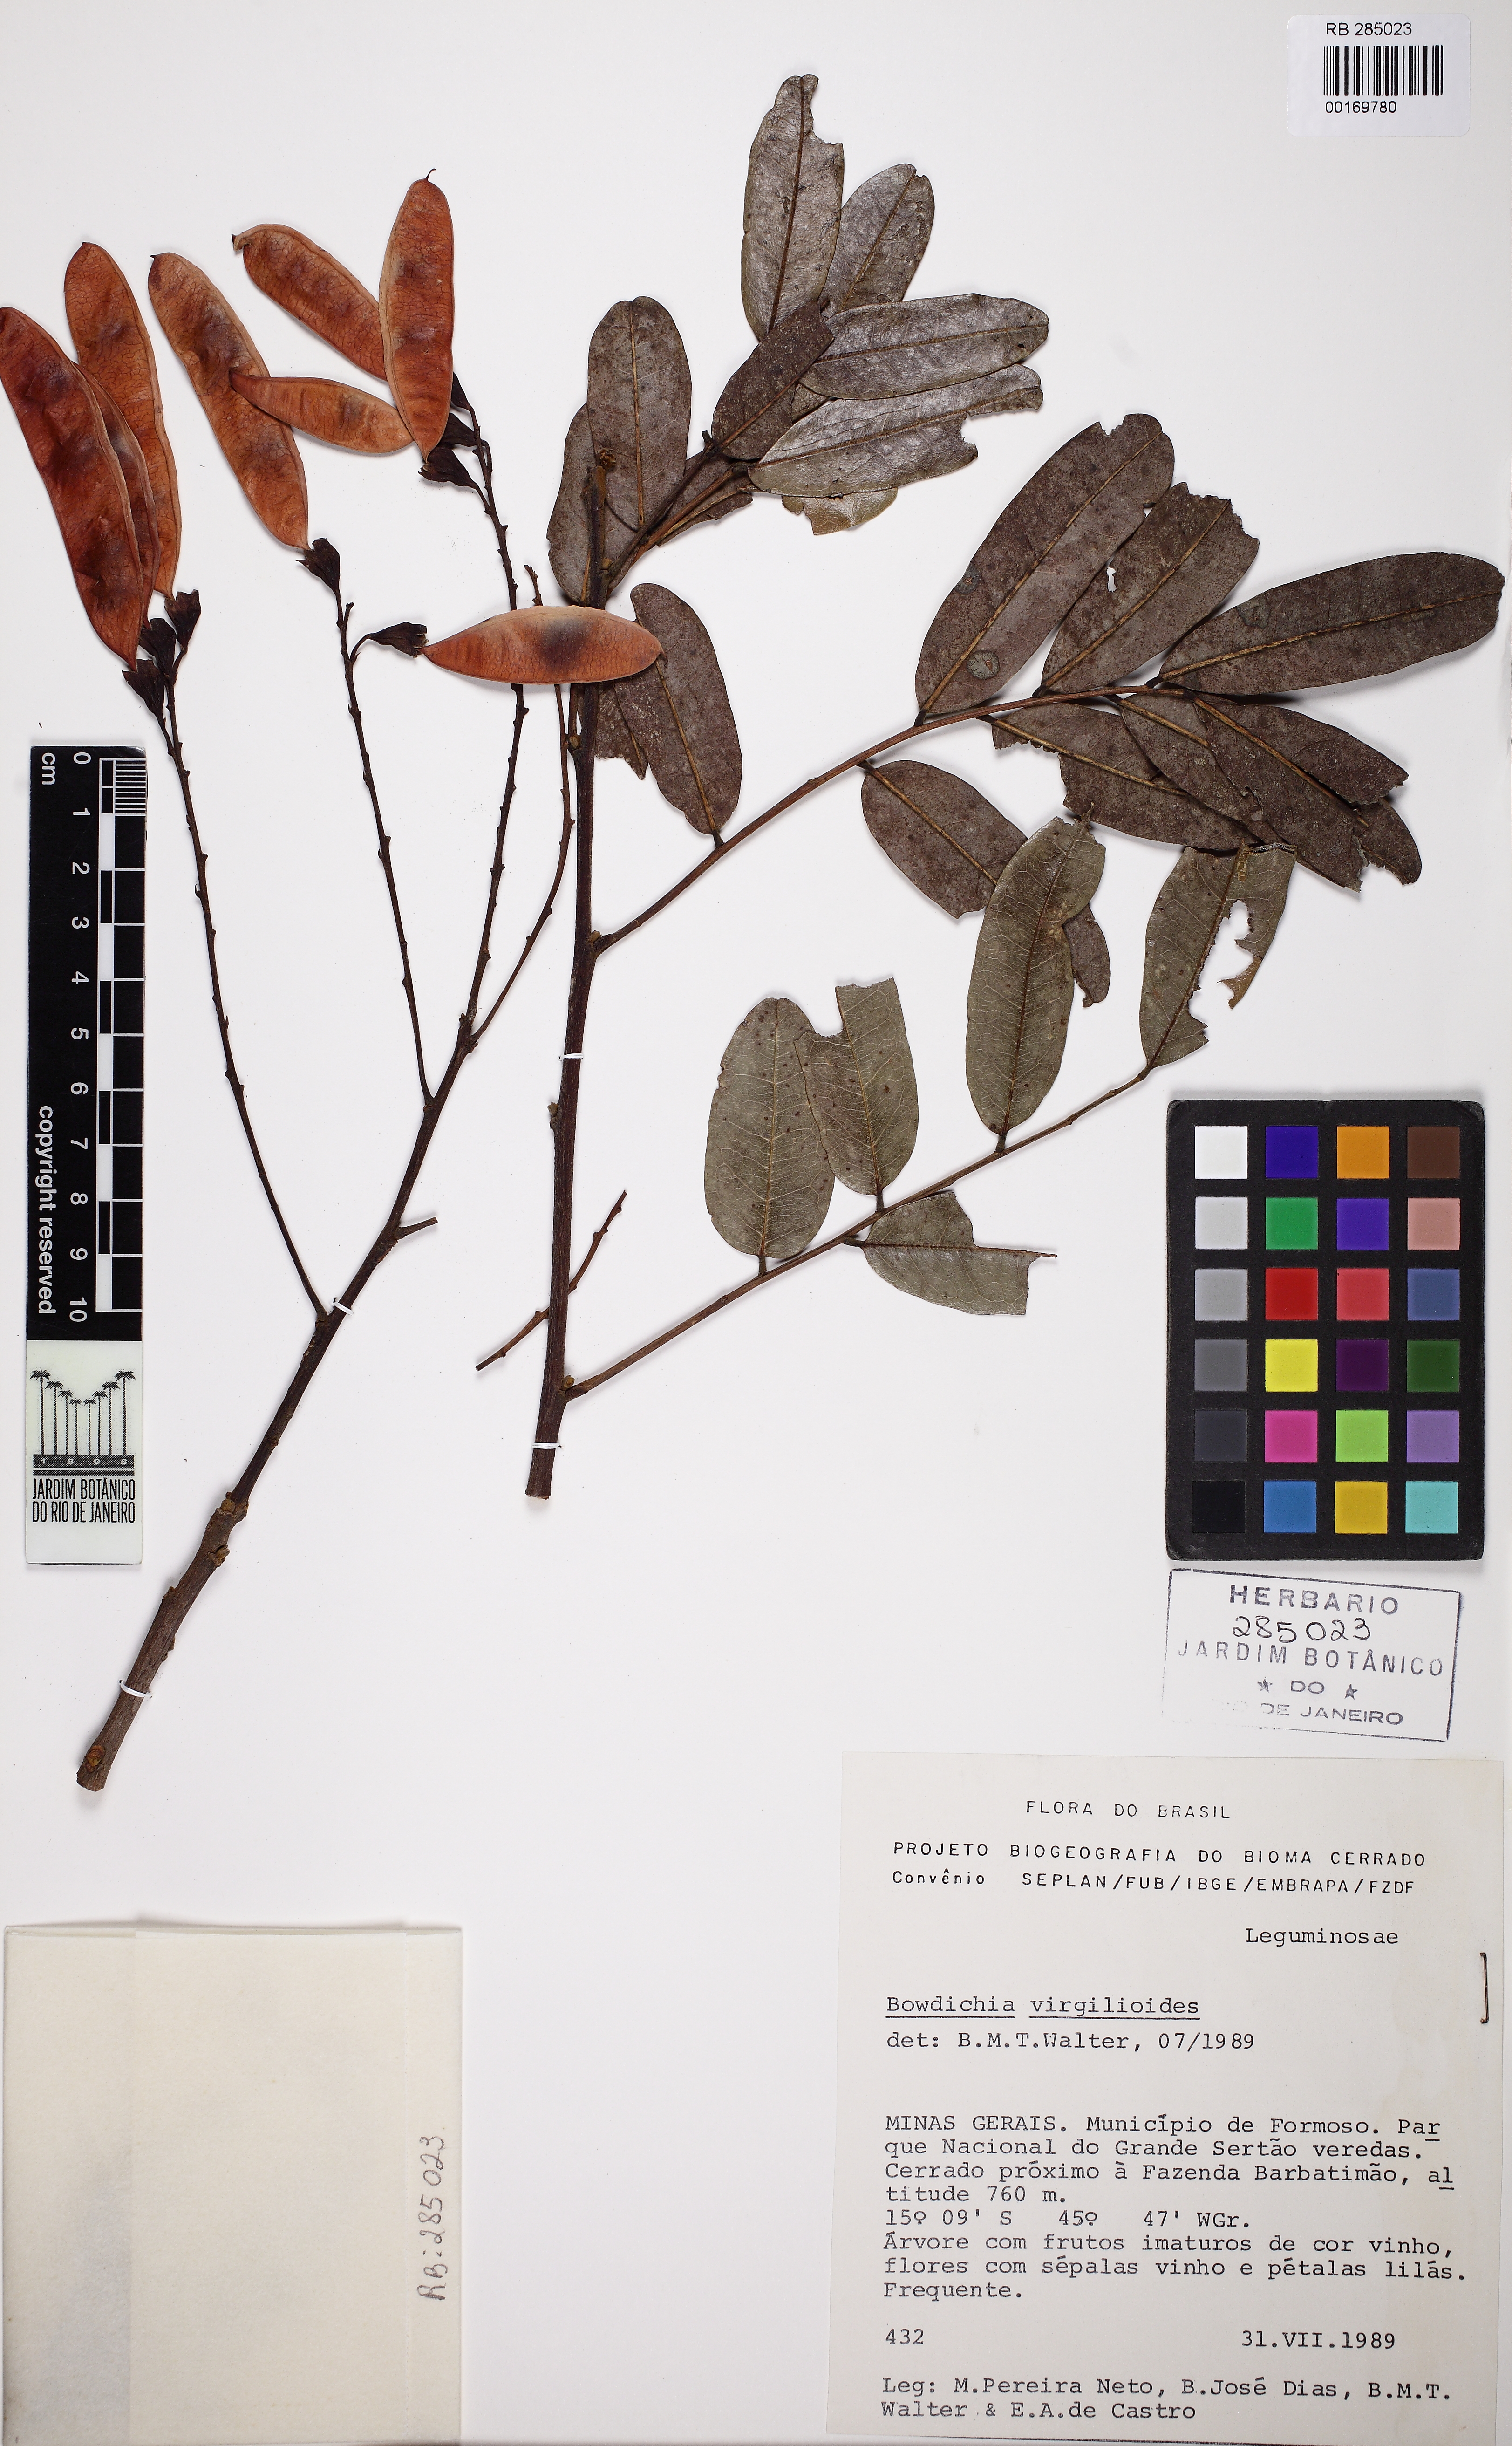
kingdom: Plantae
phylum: Tracheophyta
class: Magnoliopsida
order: Fabales
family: Fabaceae
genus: Bowdichia
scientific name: Bowdichia virgilioides
